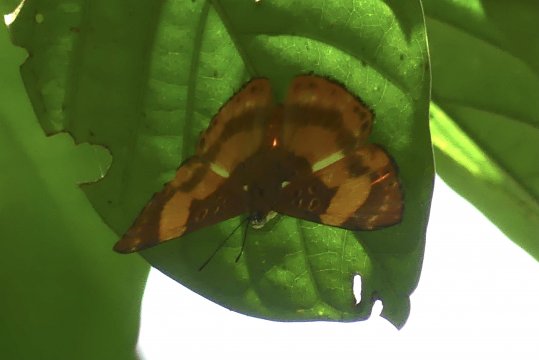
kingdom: Animalia
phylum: Arthropoda
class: Insecta
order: Lepidoptera
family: Riodinidae
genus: Nymula
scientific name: Nymula odites
